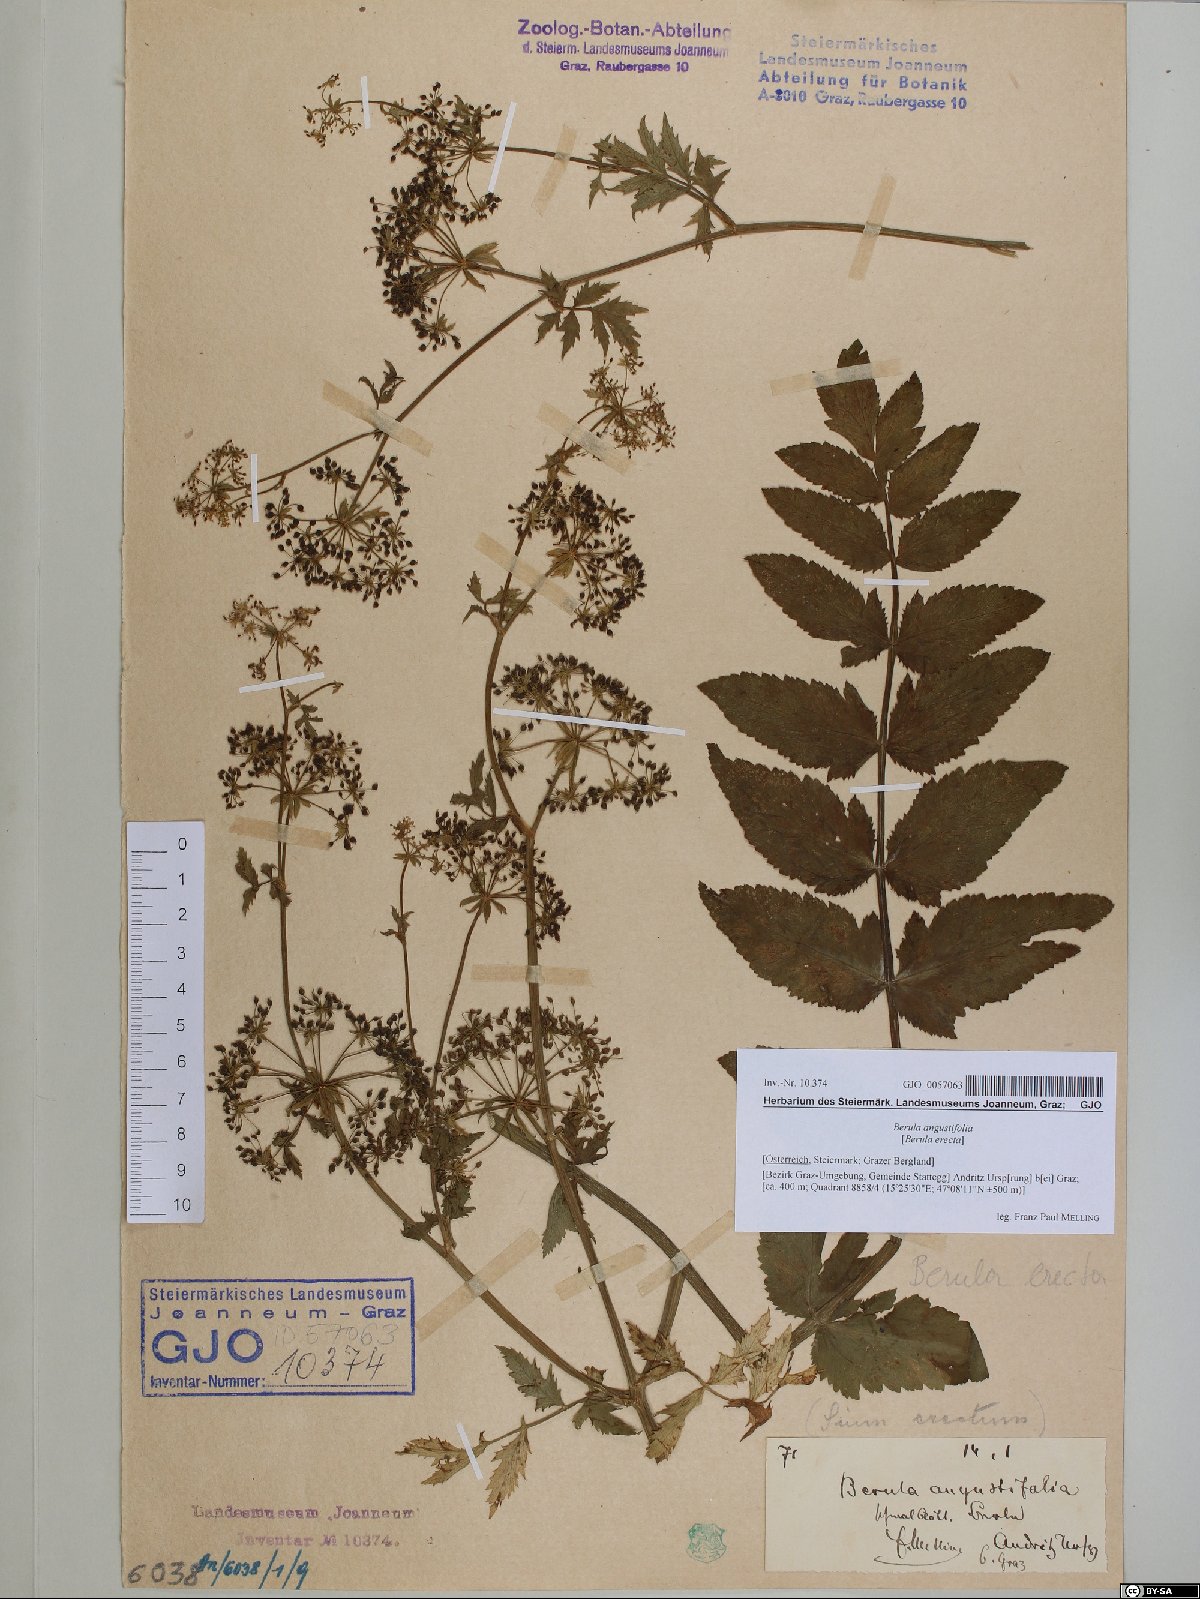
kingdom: Plantae
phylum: Tracheophyta
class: Magnoliopsida
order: Apiales
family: Apiaceae
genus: Berula
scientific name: Berula erecta
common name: Lesser water-parsnip
